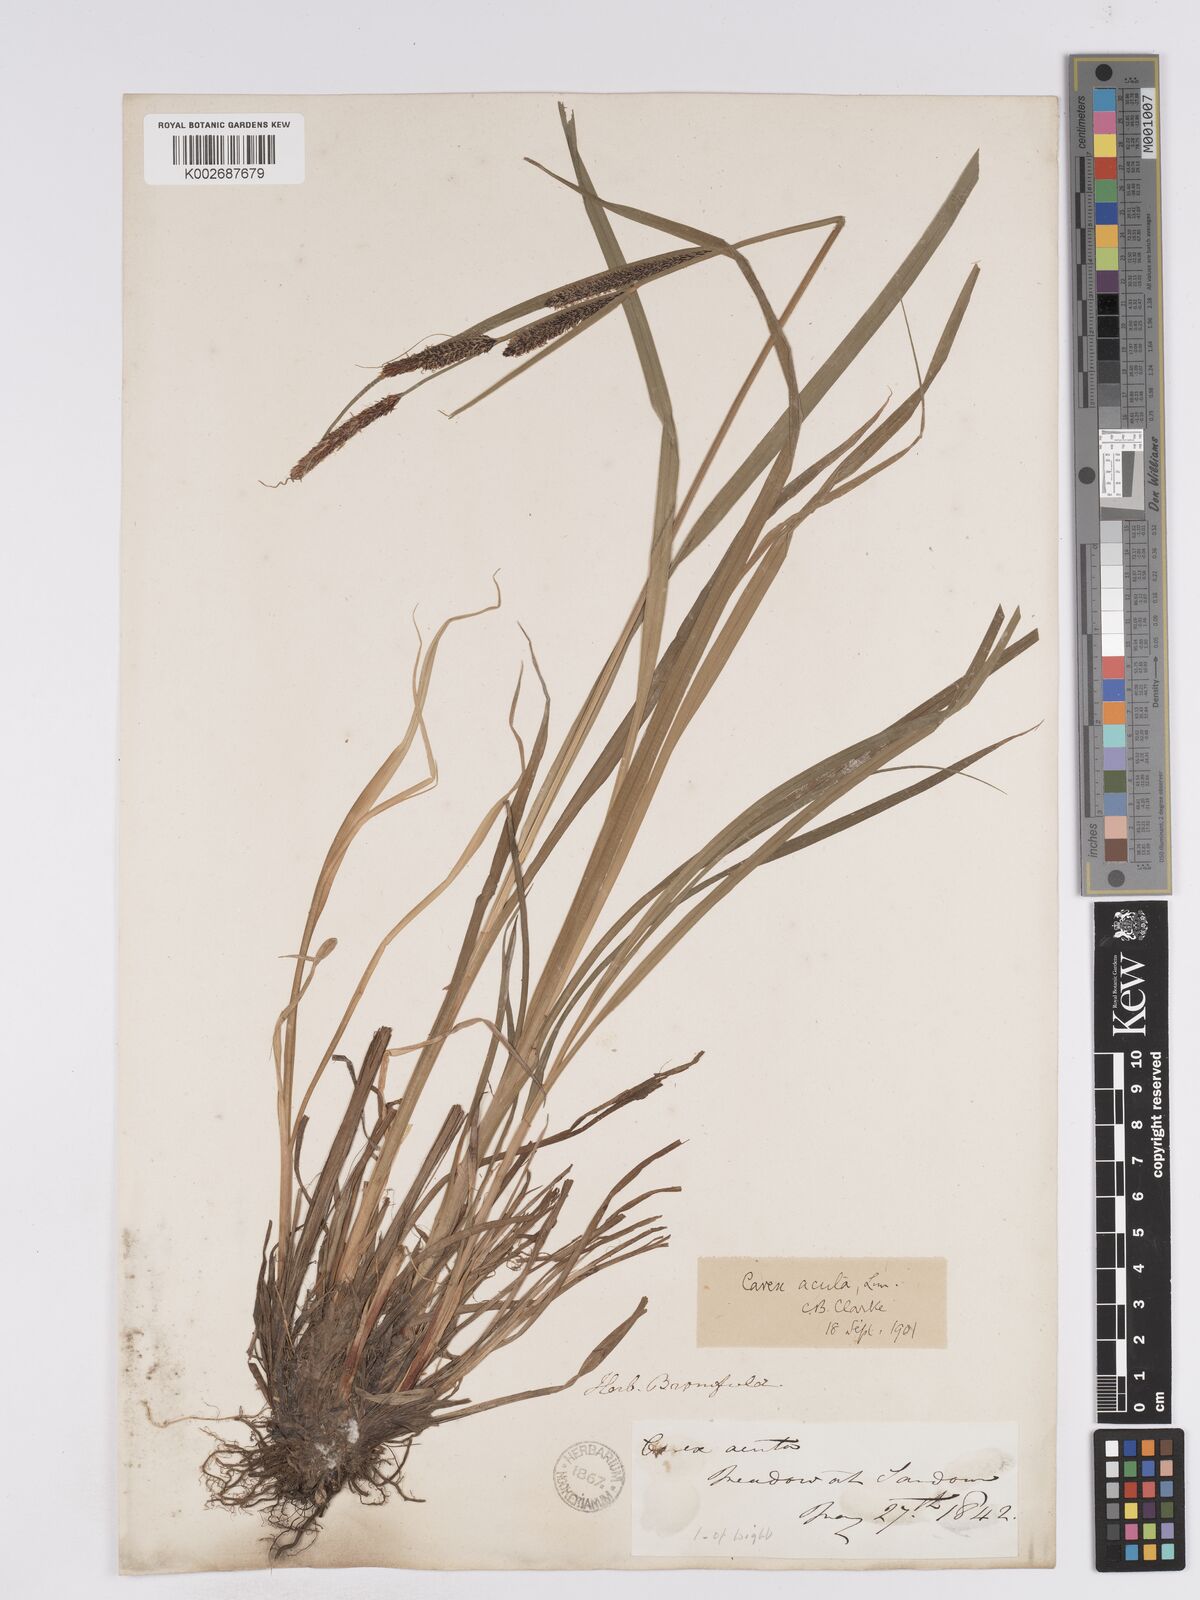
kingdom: Plantae
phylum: Tracheophyta
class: Liliopsida
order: Poales
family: Cyperaceae
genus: Carex
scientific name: Carex acuta
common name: Slender tufted-sedge
